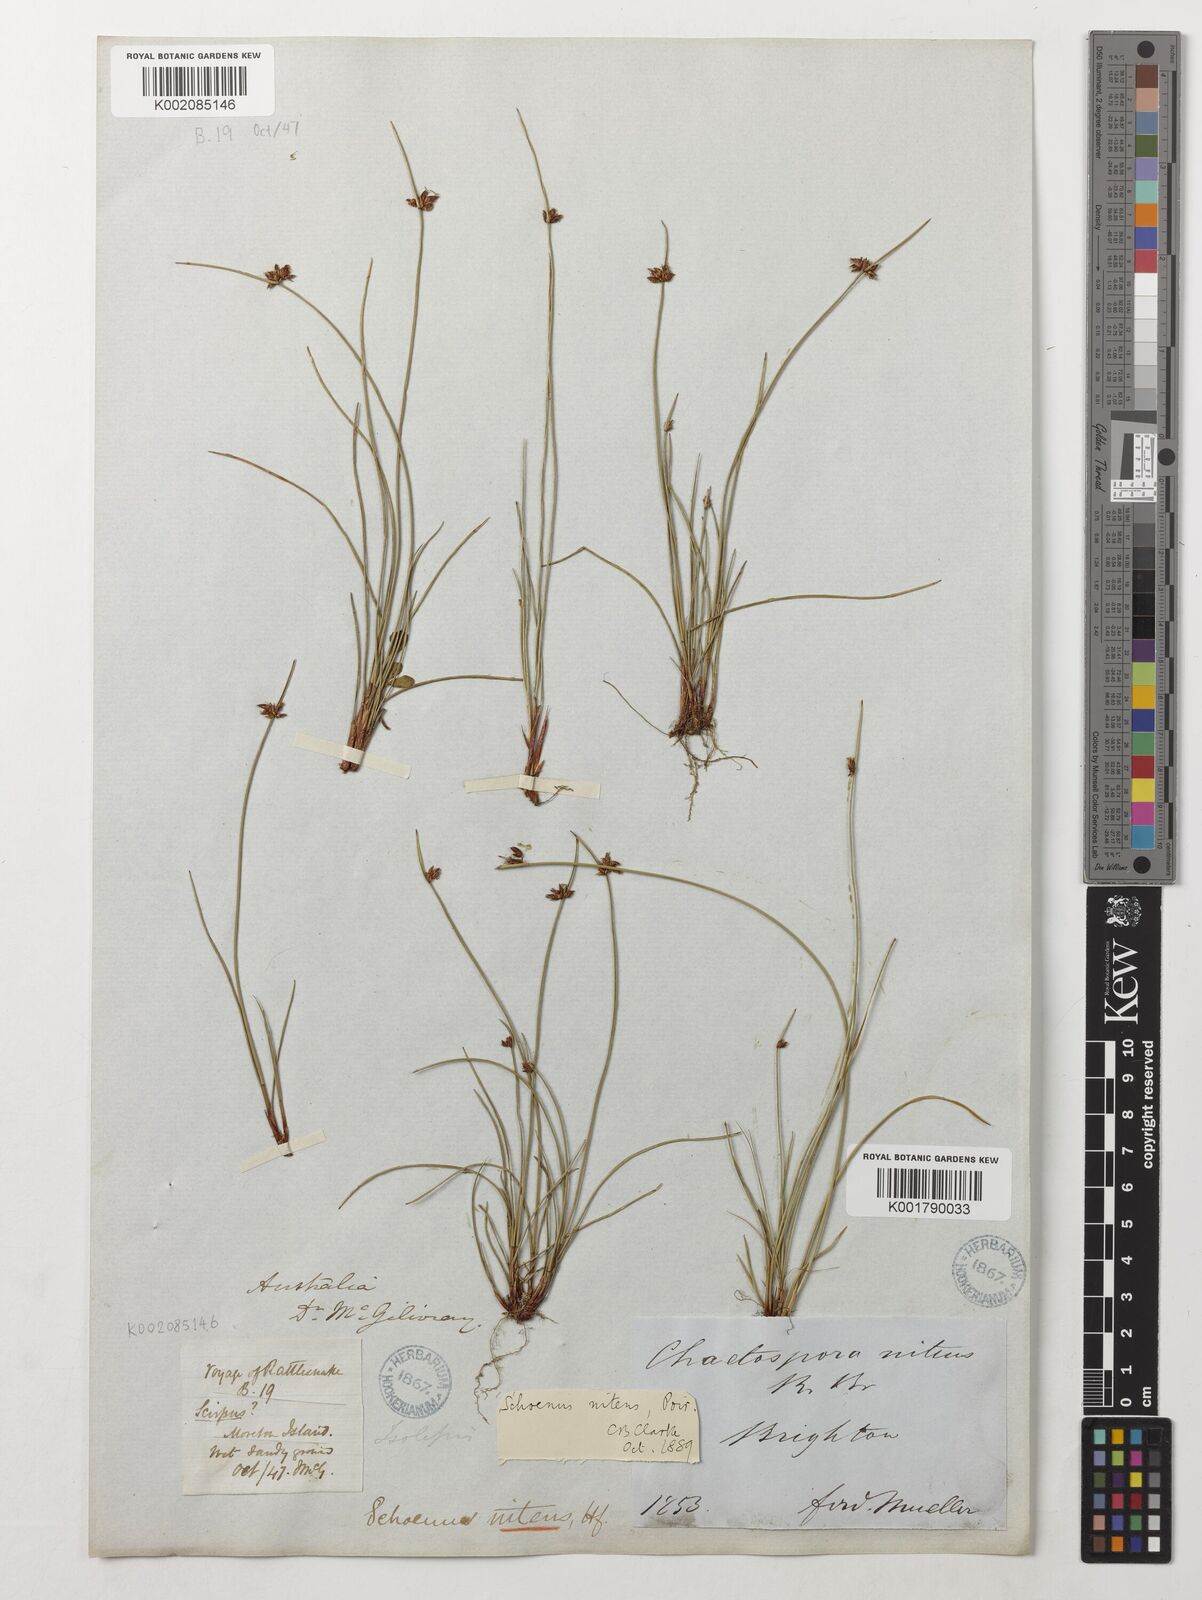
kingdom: Plantae
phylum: Tracheophyta
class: Liliopsida
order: Poales
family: Cyperaceae
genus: Schoenus
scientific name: Schoenus nitens
